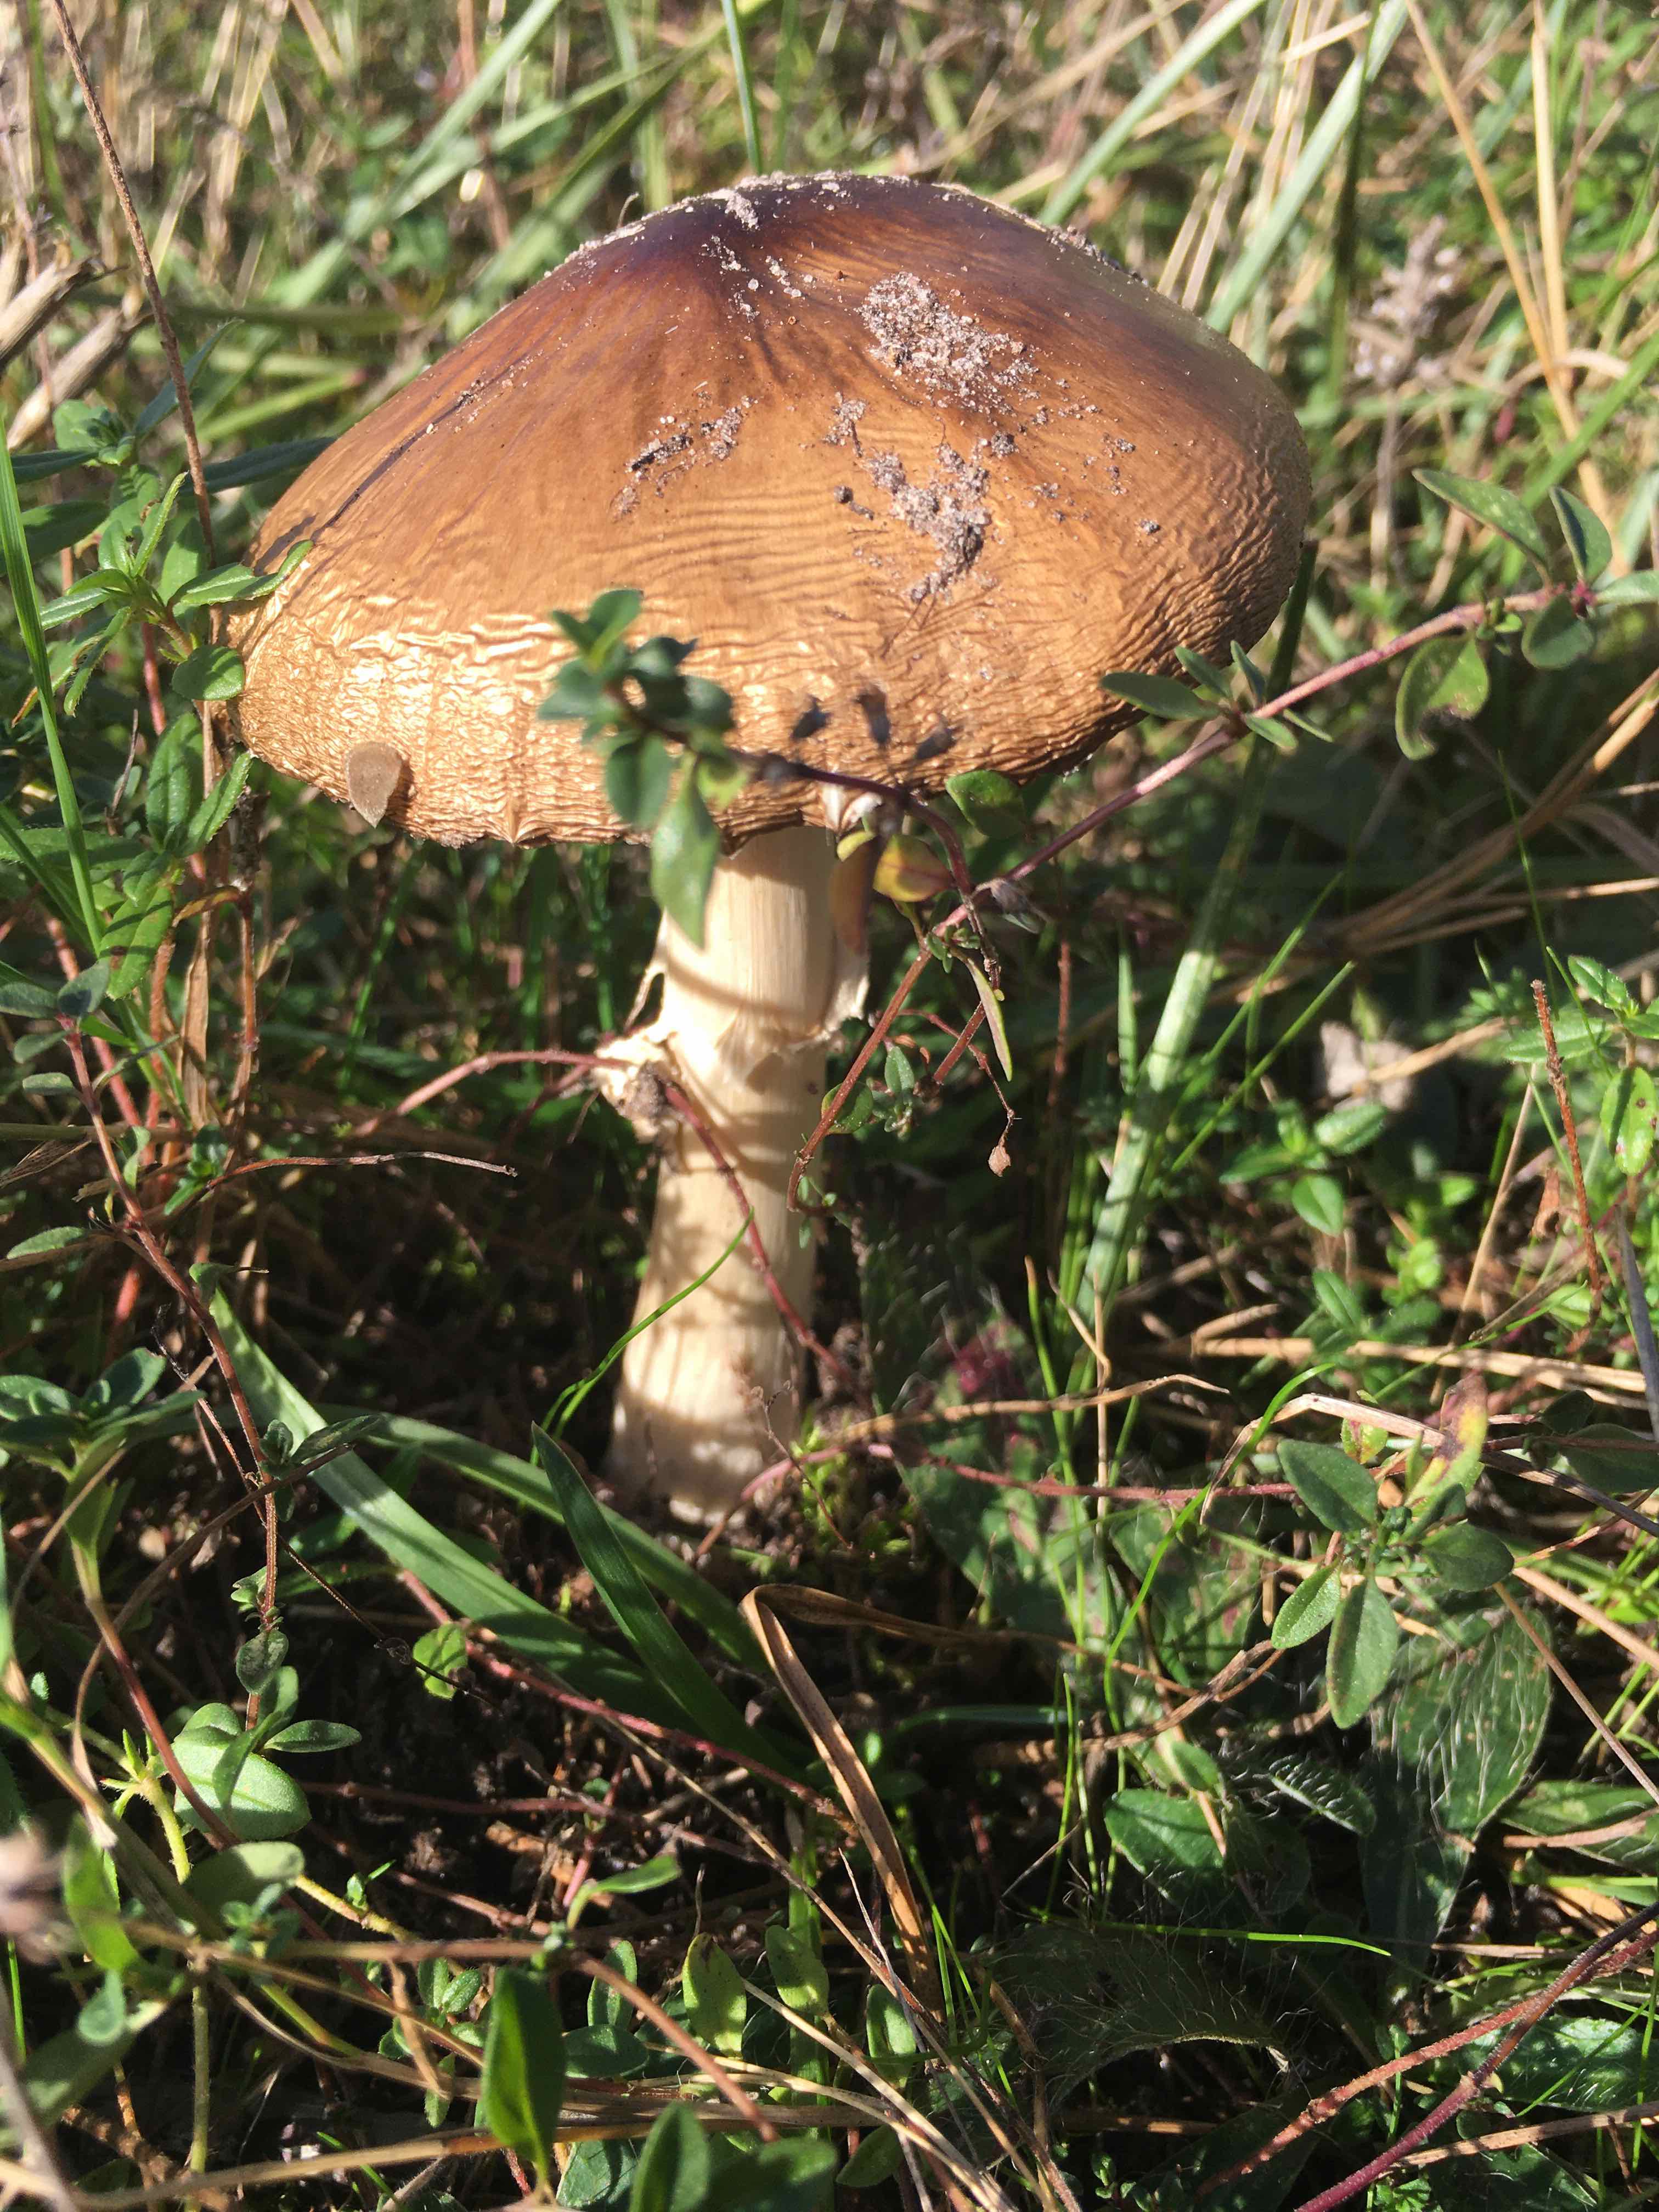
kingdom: Fungi
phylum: Basidiomycota
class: Agaricomycetes
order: Agaricales
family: Amanitaceae
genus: Amanita
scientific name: Amanita pantherina
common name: panter-fluesvamp
